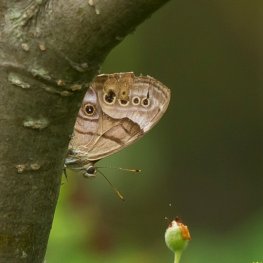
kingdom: Animalia
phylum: Arthropoda
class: Insecta
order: Lepidoptera
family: Nymphalidae
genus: Lethe
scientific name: Lethe anthedon
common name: Northern Pearly-Eye
